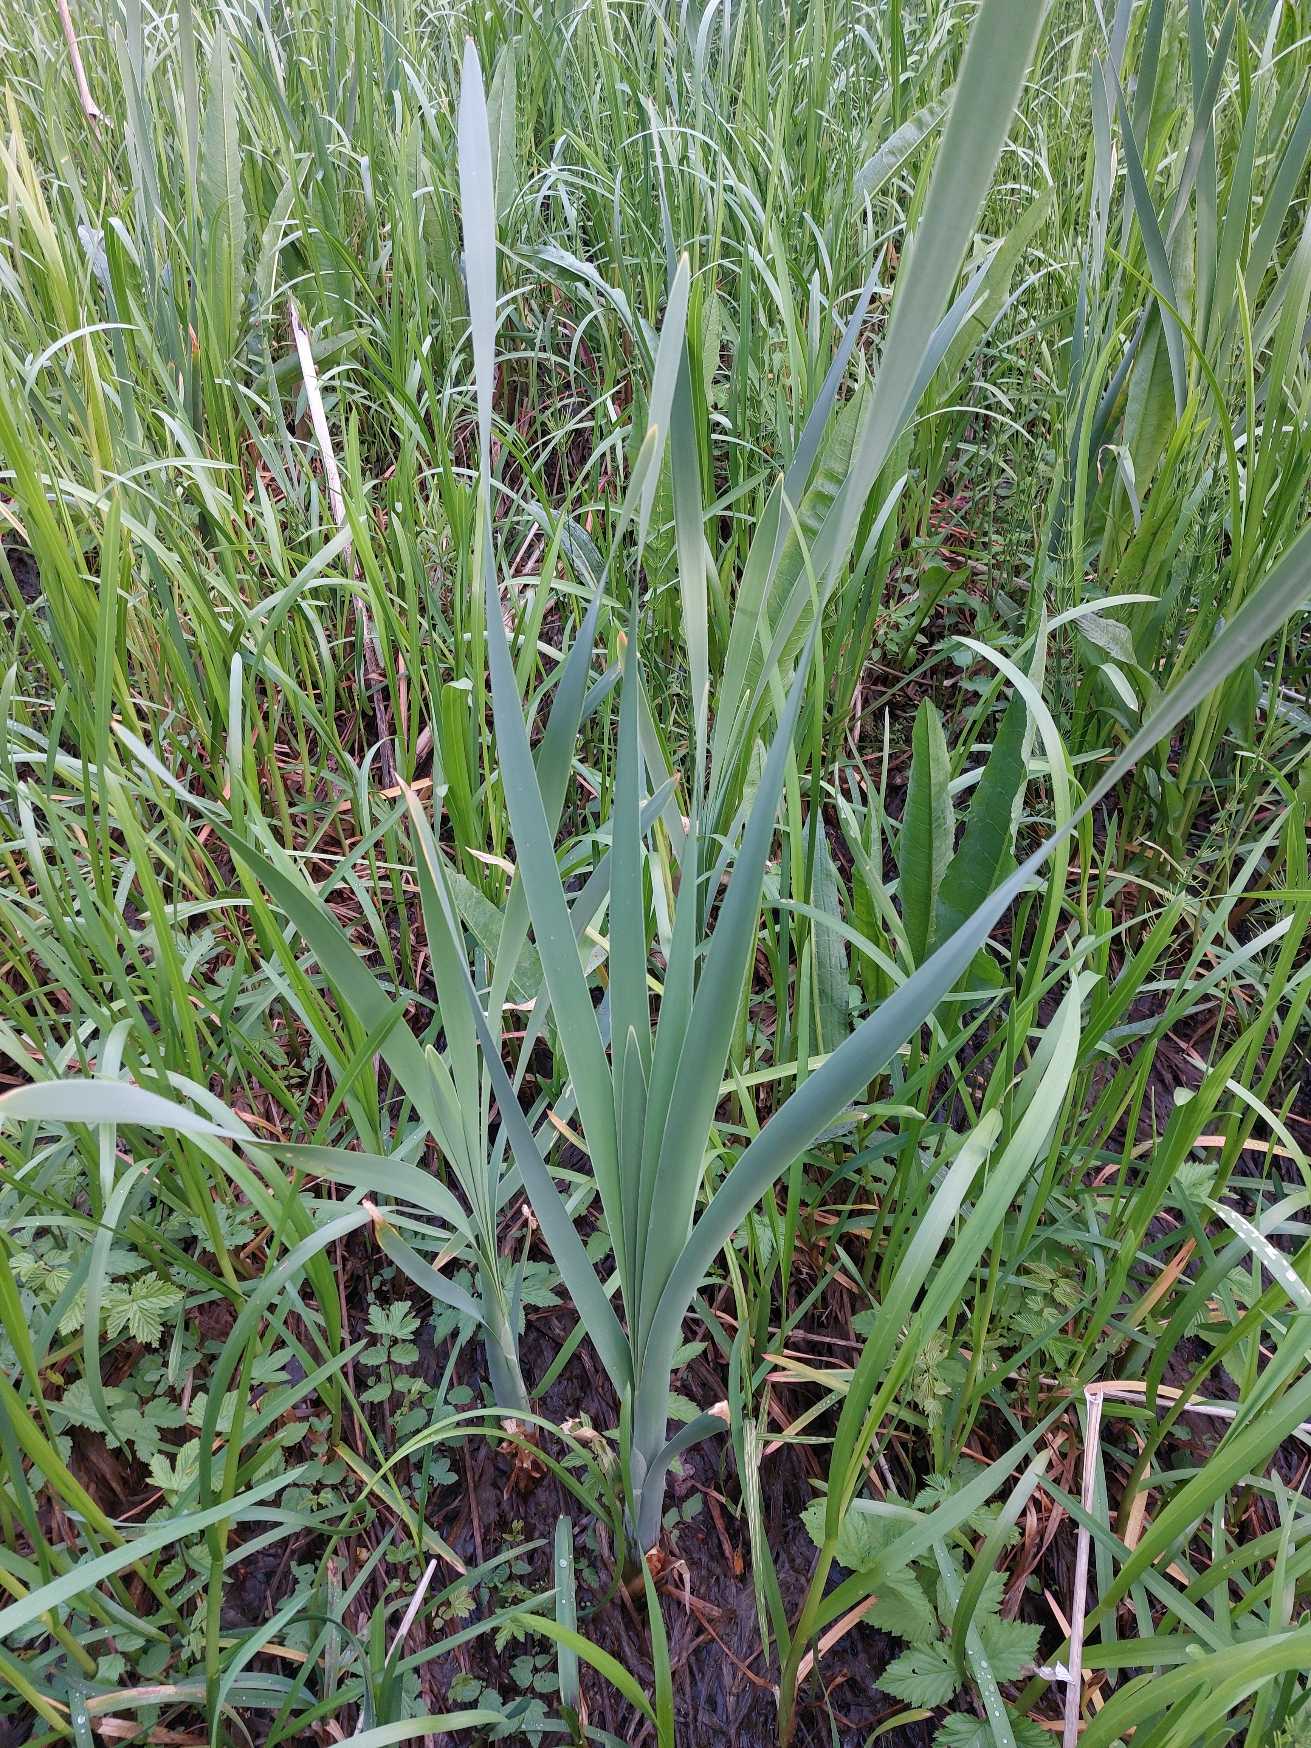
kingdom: Plantae
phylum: Tracheophyta
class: Liliopsida
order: Poales
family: Typhaceae
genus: Typha
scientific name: Typha latifolia
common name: Bredbladet dunhammer
